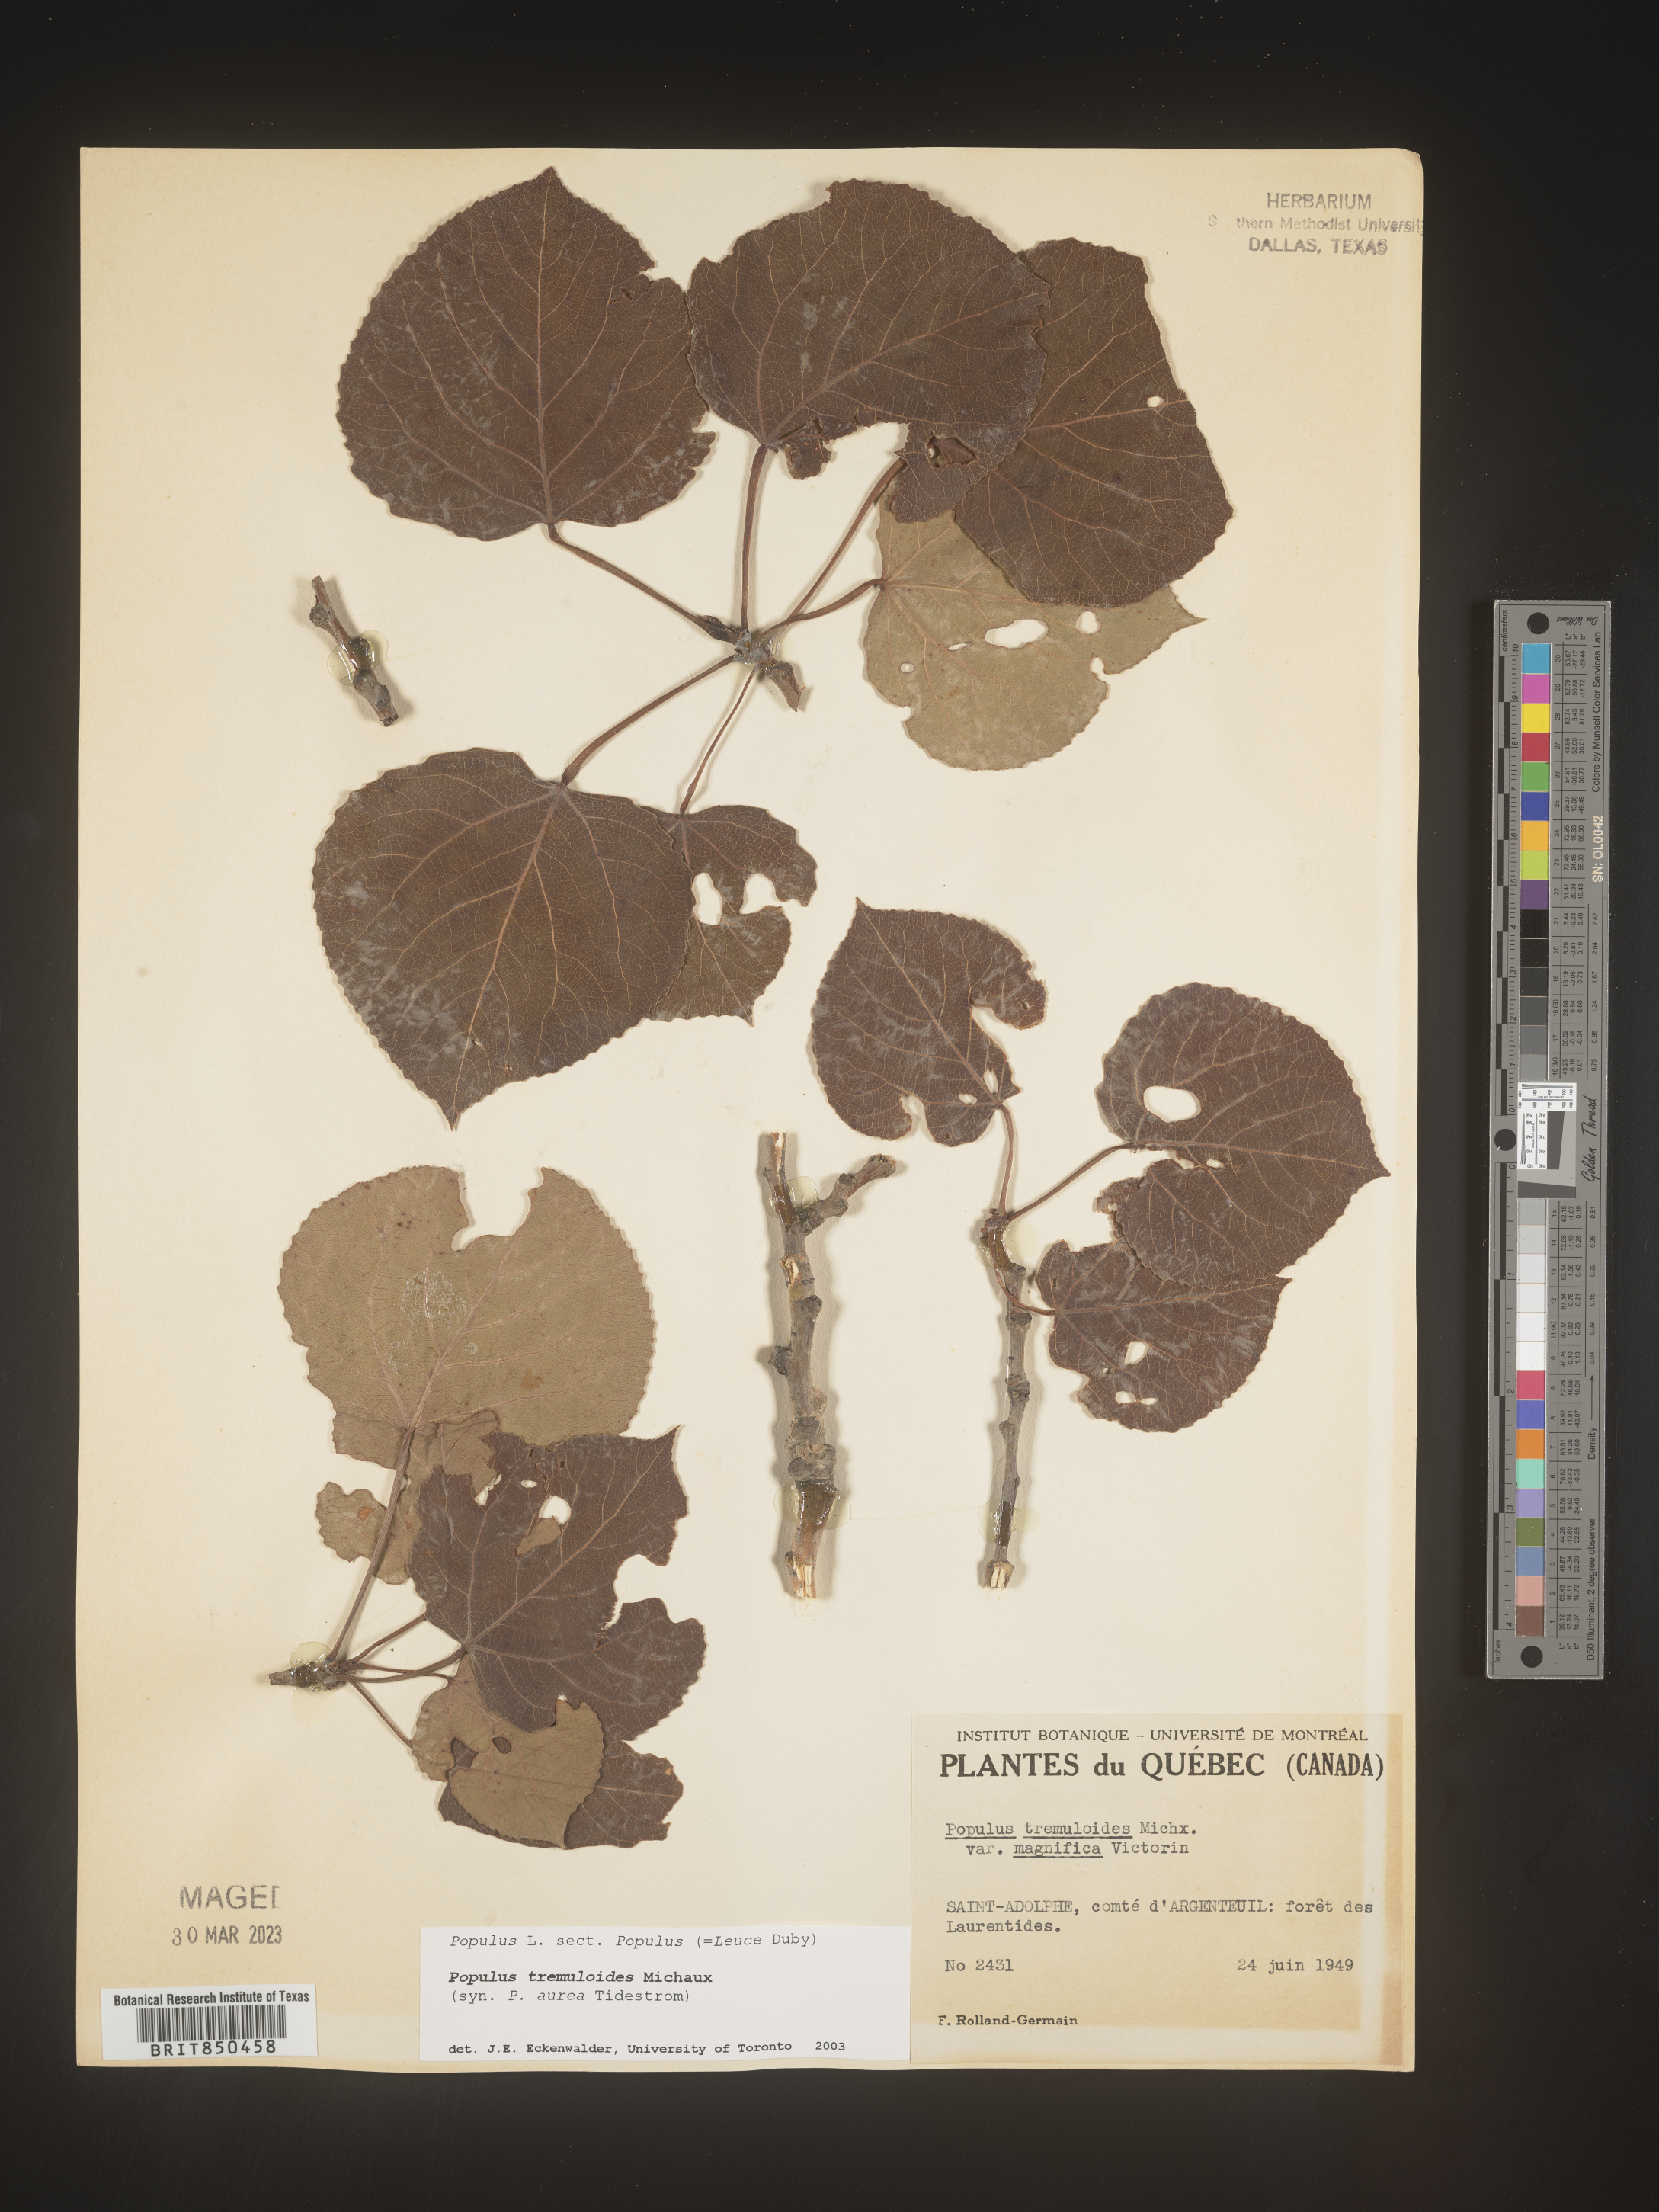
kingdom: Plantae
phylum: Tracheophyta
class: Magnoliopsida
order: Malpighiales
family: Salicaceae
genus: Populus
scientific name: Populus tremuloides
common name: Quaking aspen
